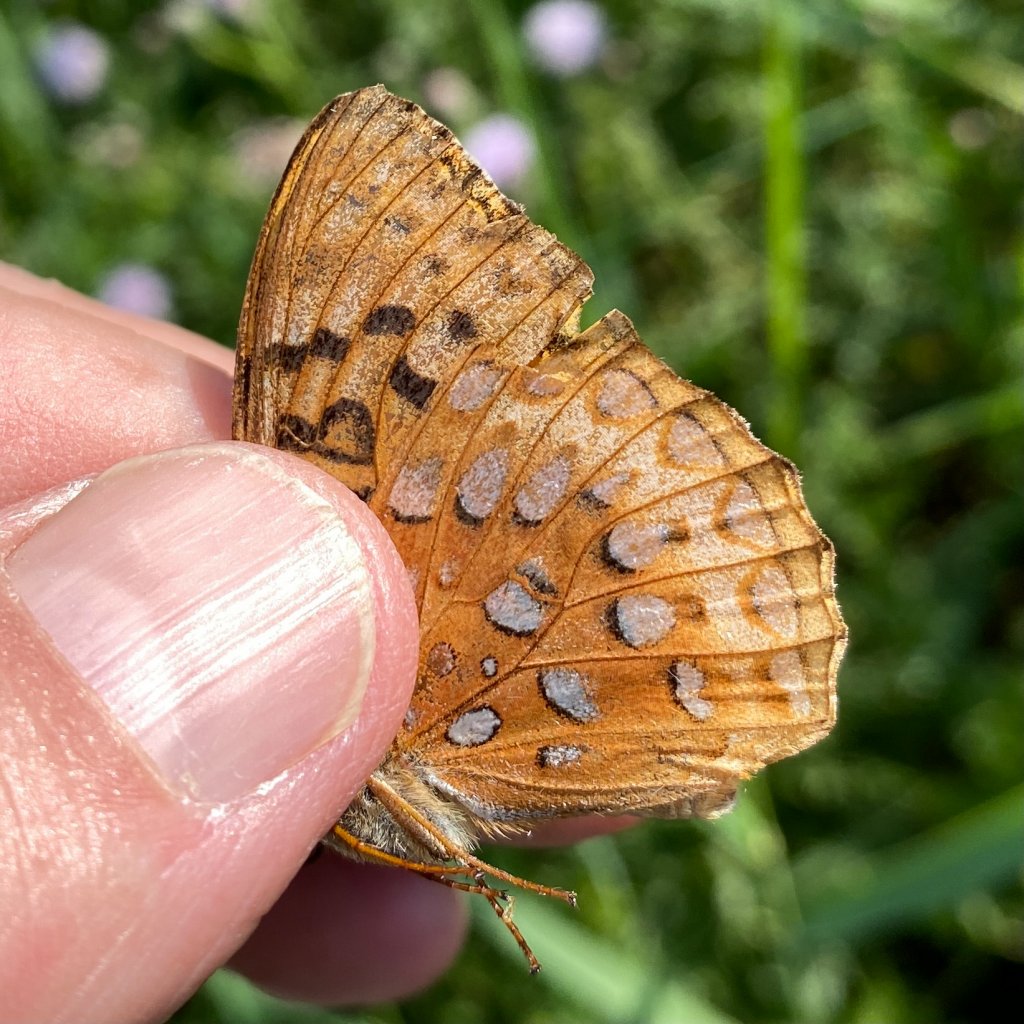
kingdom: Animalia
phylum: Arthropoda
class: Insecta
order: Lepidoptera
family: Nymphalidae
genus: Speyeria
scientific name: Speyeria aphrodite
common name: Aphrodite Fritillary
